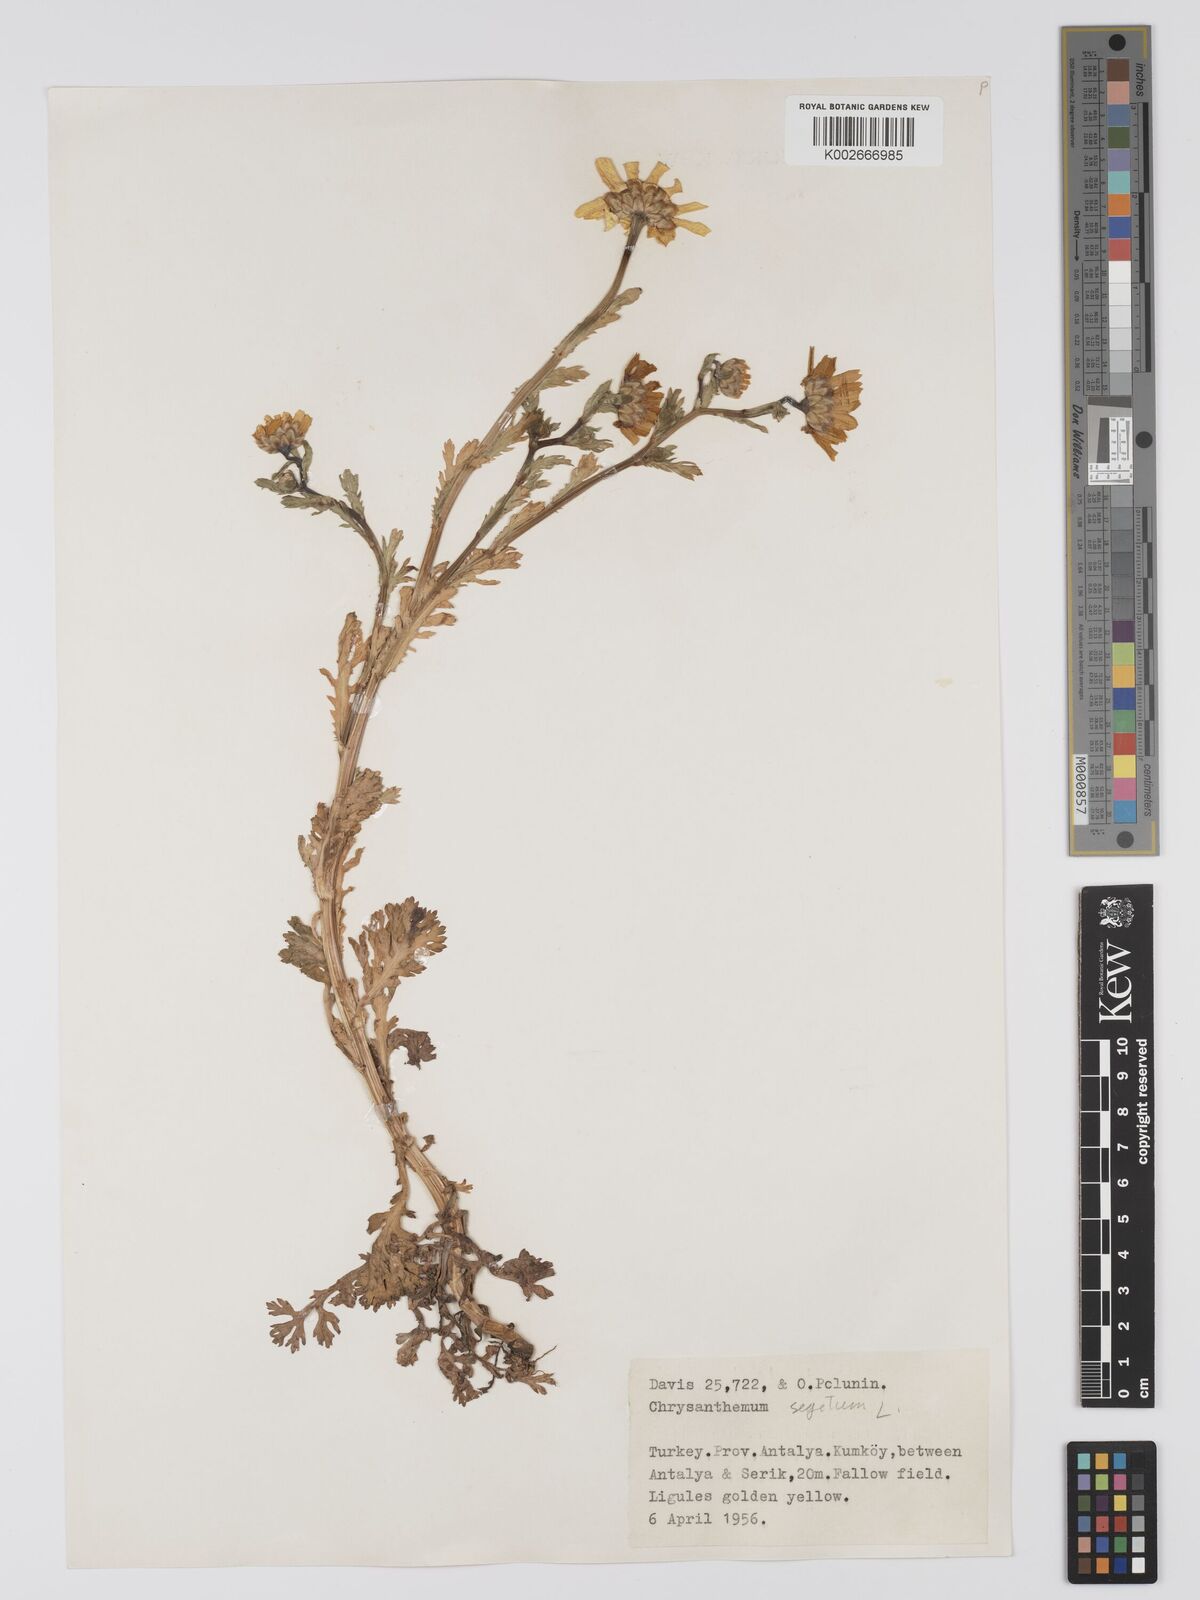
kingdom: Plantae
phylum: Tracheophyta
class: Magnoliopsida
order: Asterales
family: Asteraceae
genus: Glebionis
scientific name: Glebionis segetum
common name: Corndaisy
